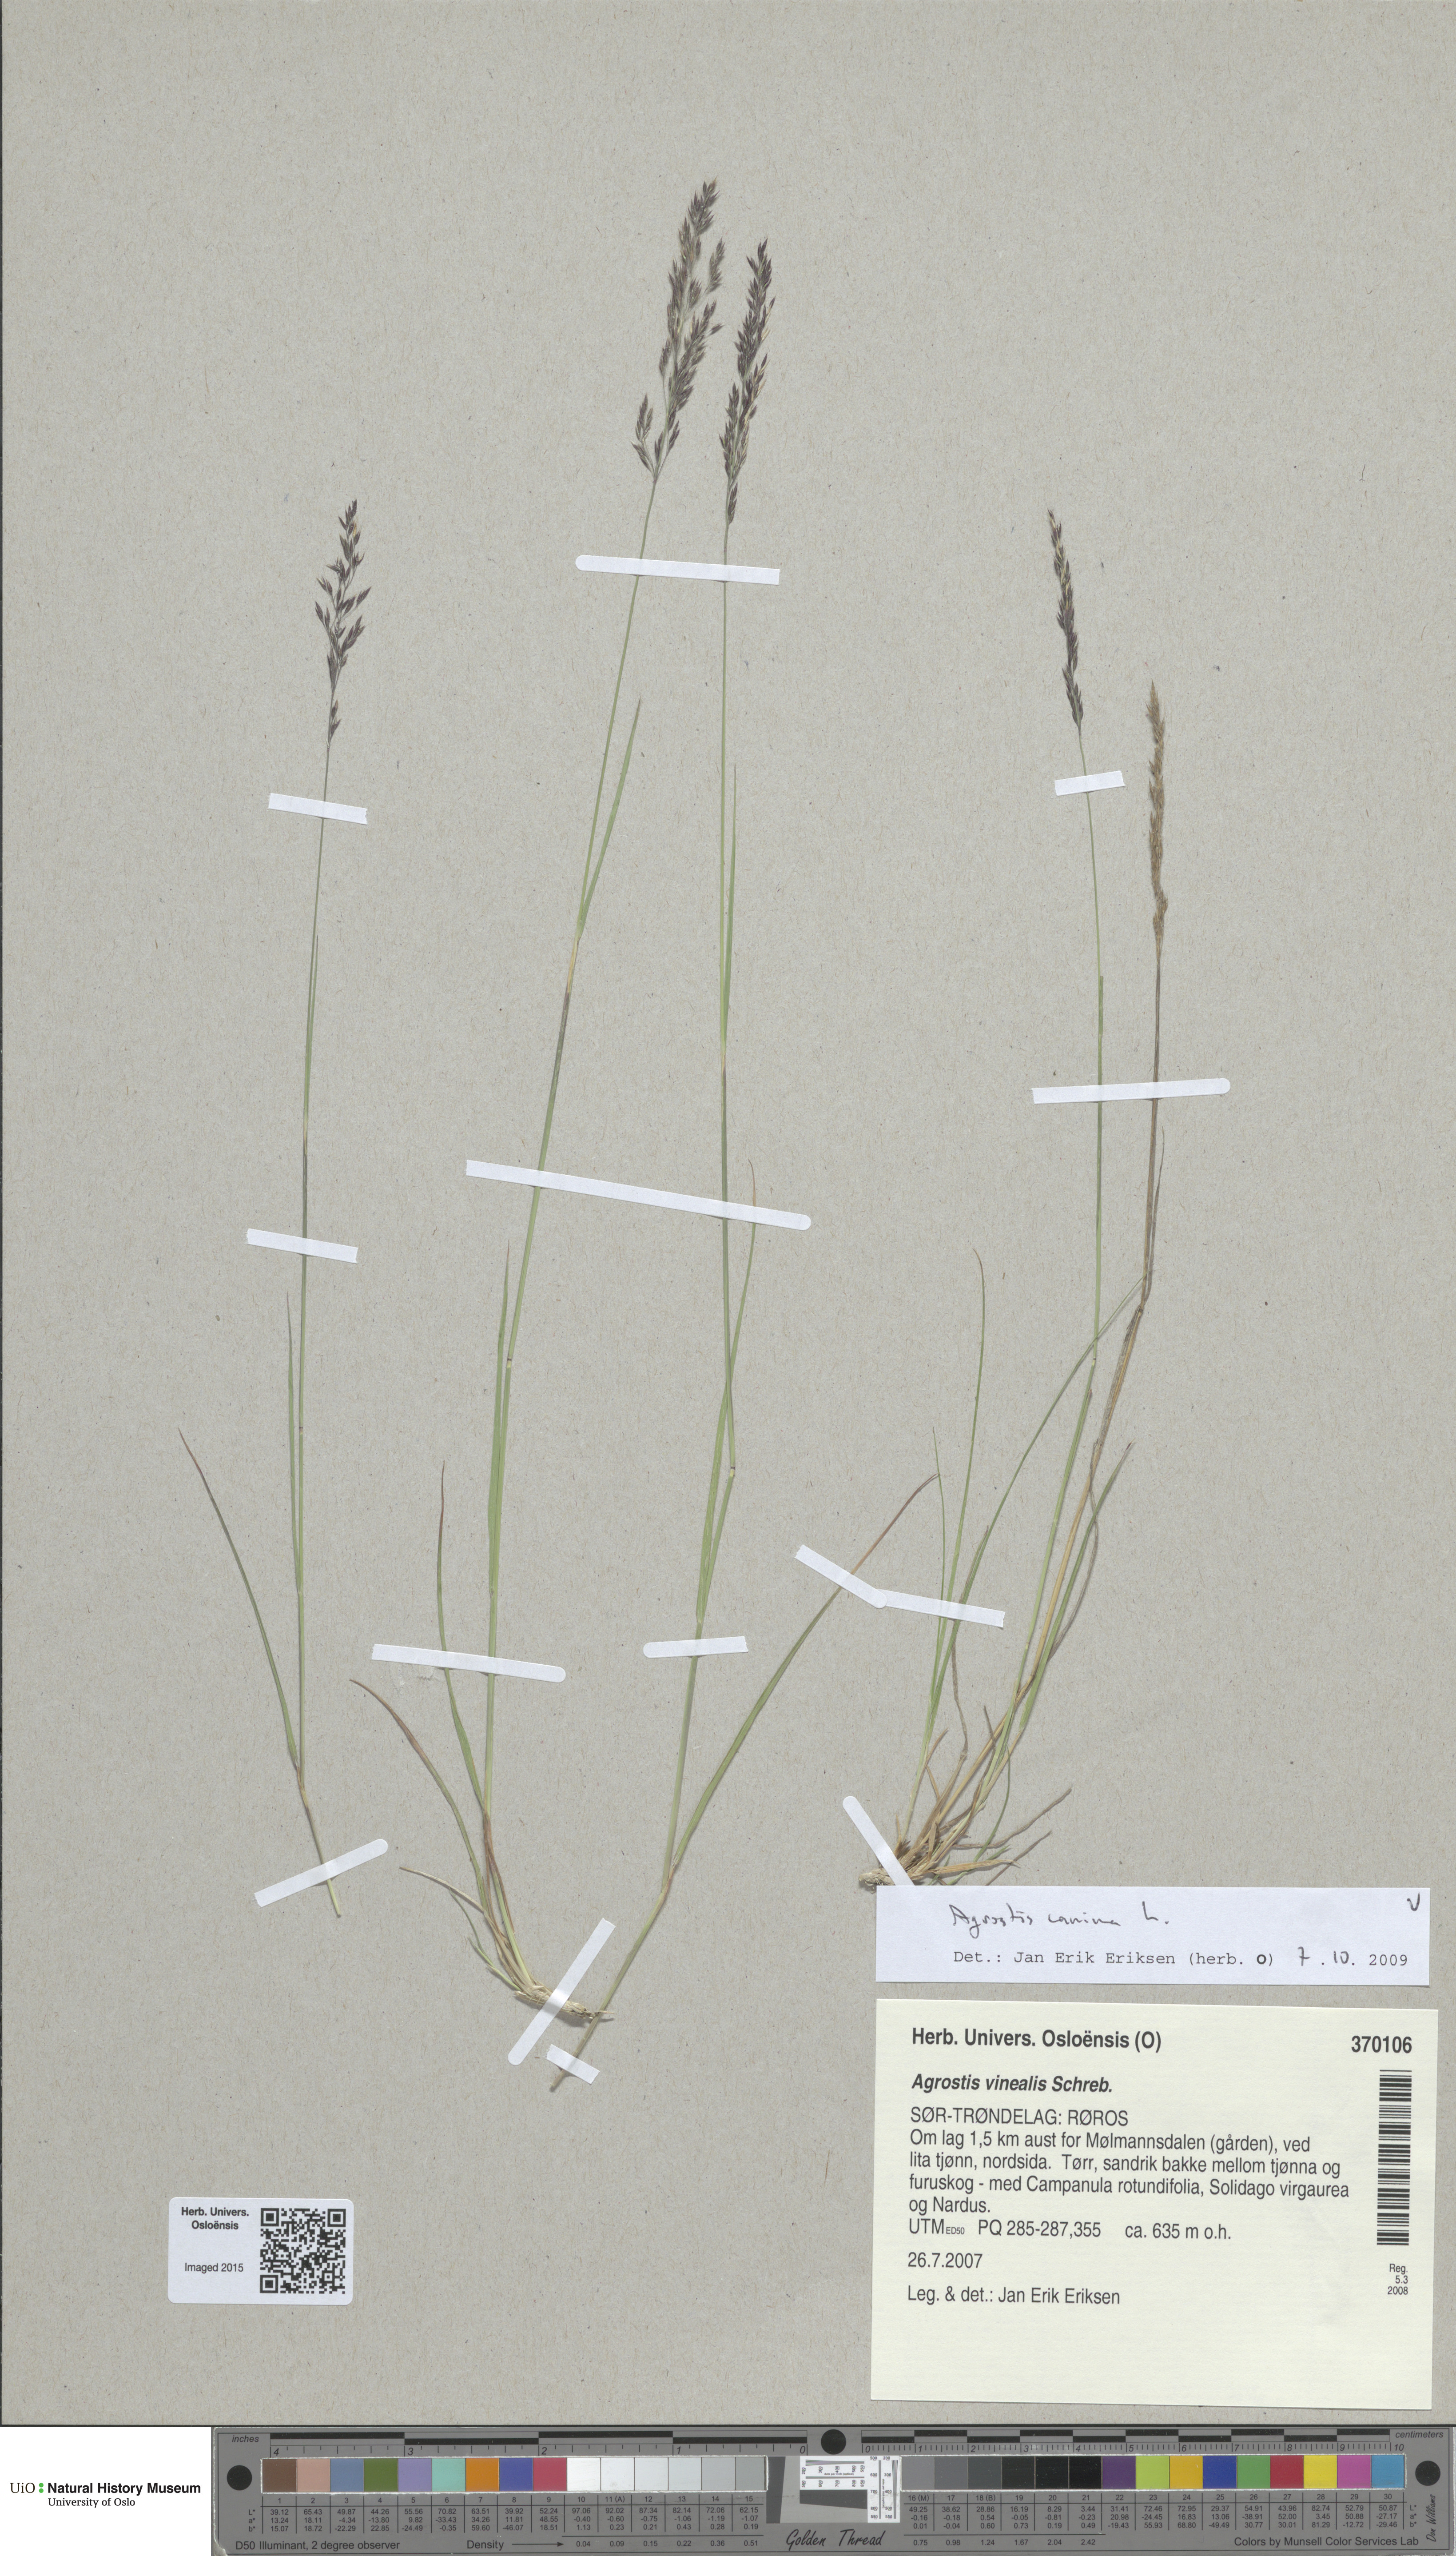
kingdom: Plantae
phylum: Tracheophyta
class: Liliopsida
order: Poales
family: Poaceae
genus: Agrostis
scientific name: Agrostis canina
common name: Velvet bent
